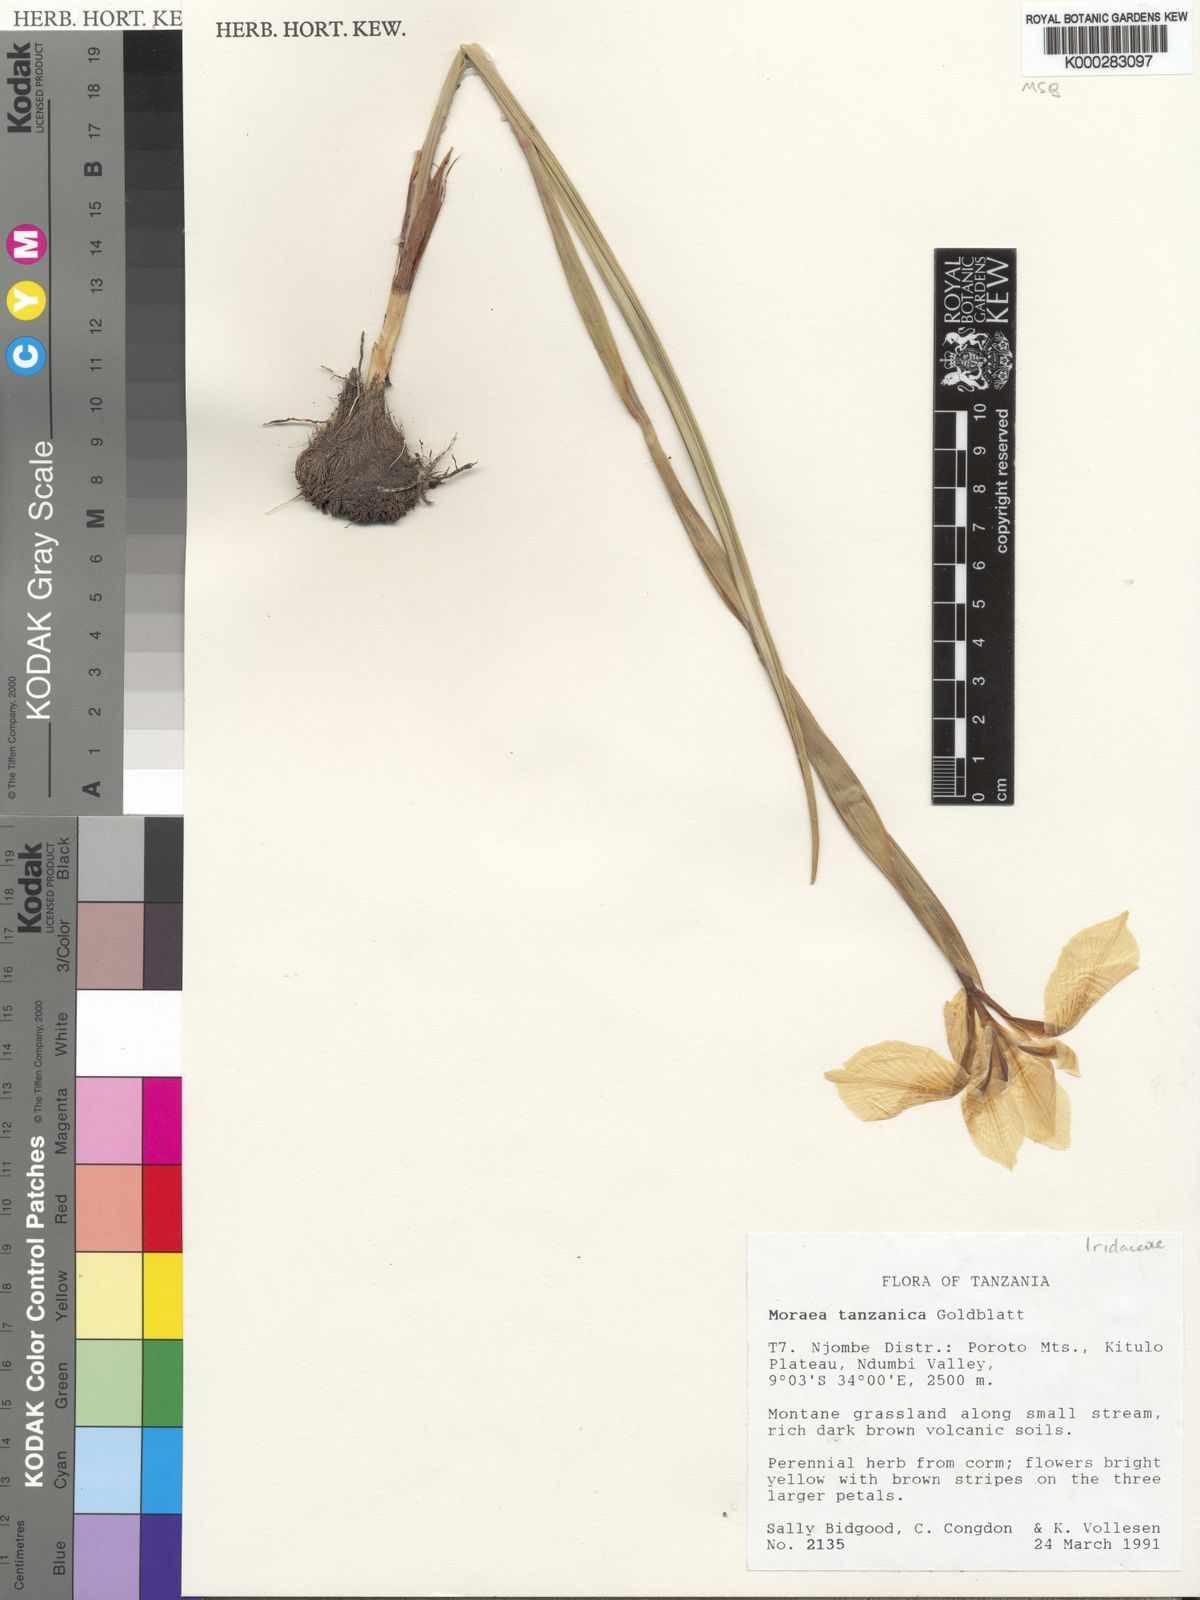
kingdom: Plantae
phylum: Tracheophyta
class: Liliopsida
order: Asparagales
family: Iridaceae
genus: Moraea
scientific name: Moraea tanzanica
